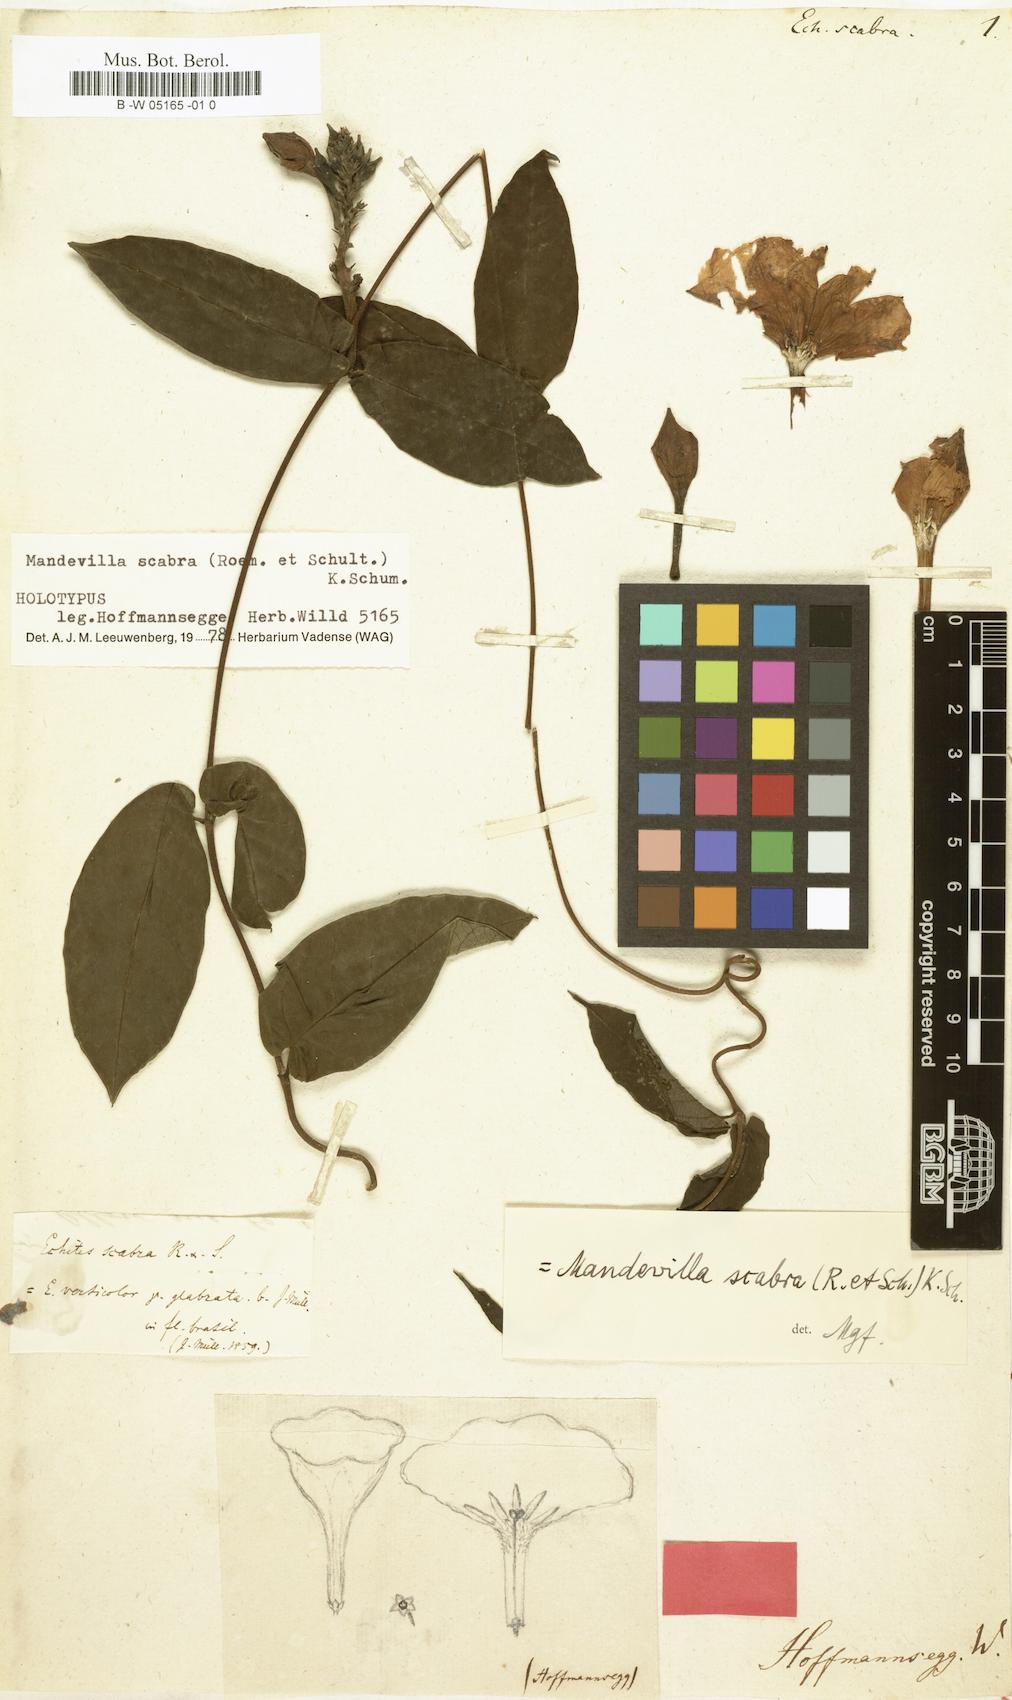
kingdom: Plantae
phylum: Tracheophyta
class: Magnoliopsida
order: Gentianales
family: Apocynaceae
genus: Mandevilla
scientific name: Mandevilla scabra
